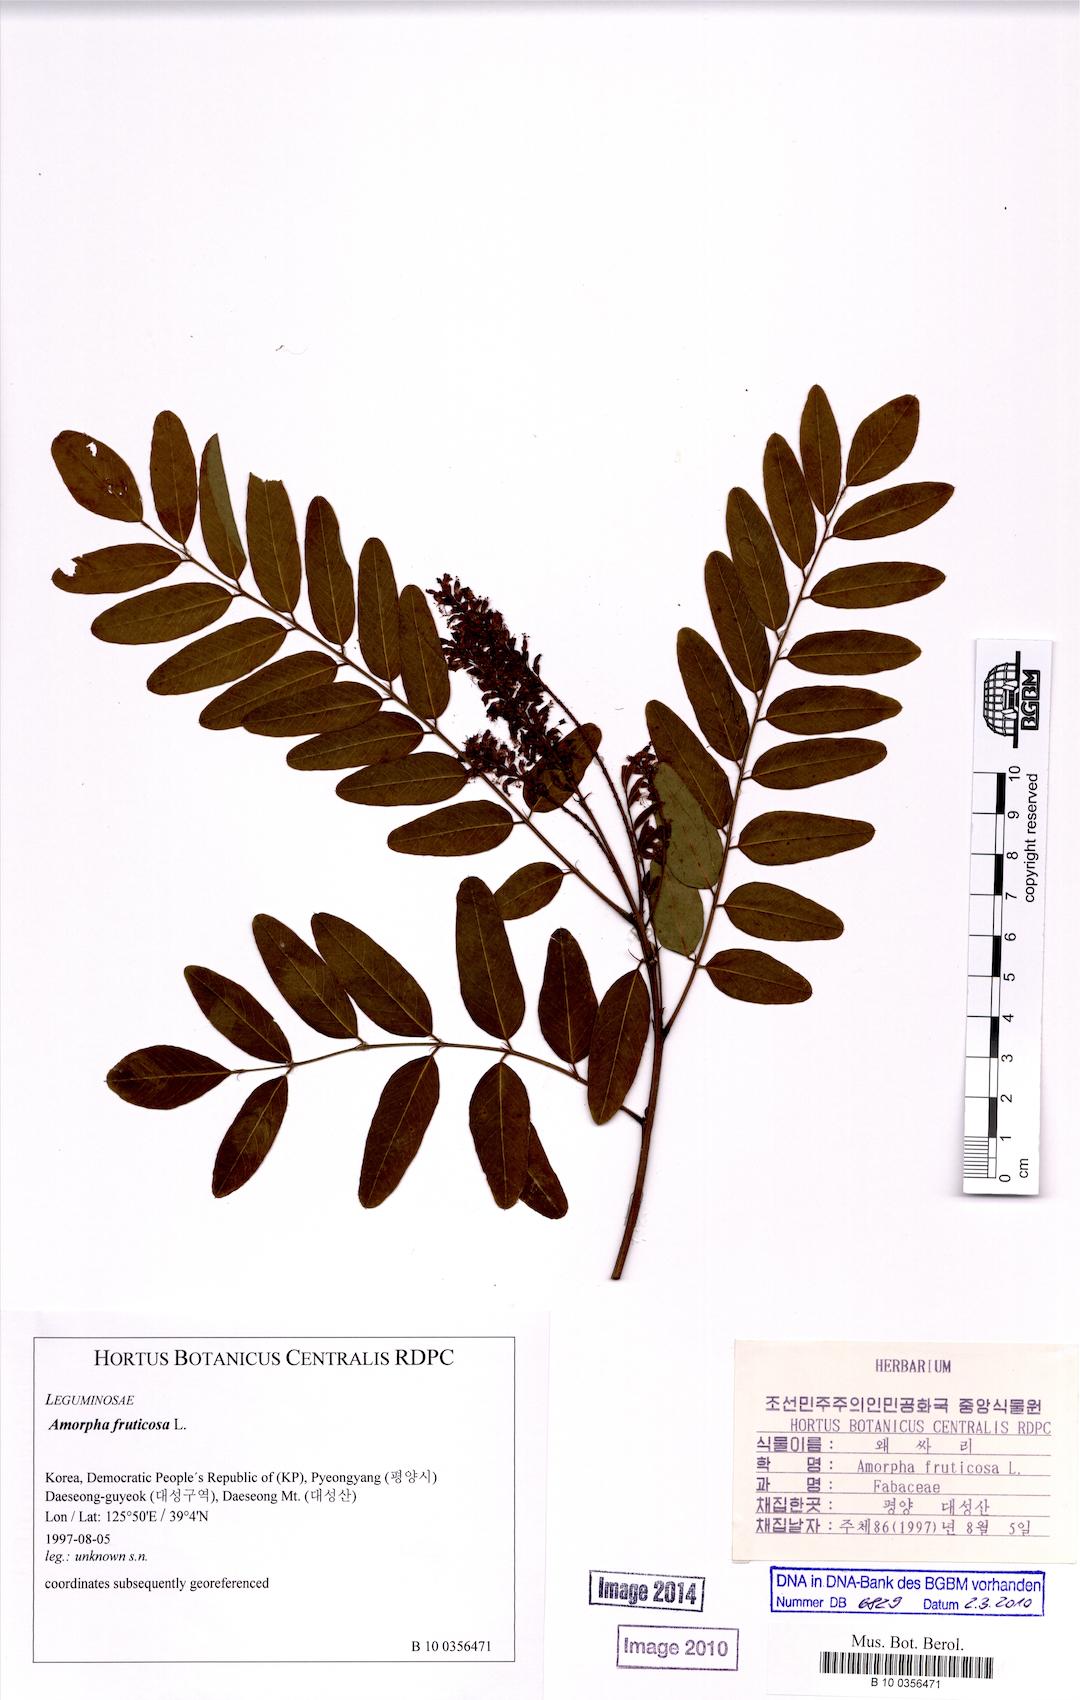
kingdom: Plantae
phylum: Tracheophyta
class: Magnoliopsida
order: Fabales
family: Fabaceae
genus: Amorpha
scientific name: Amorpha fruticosa
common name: False indigo
